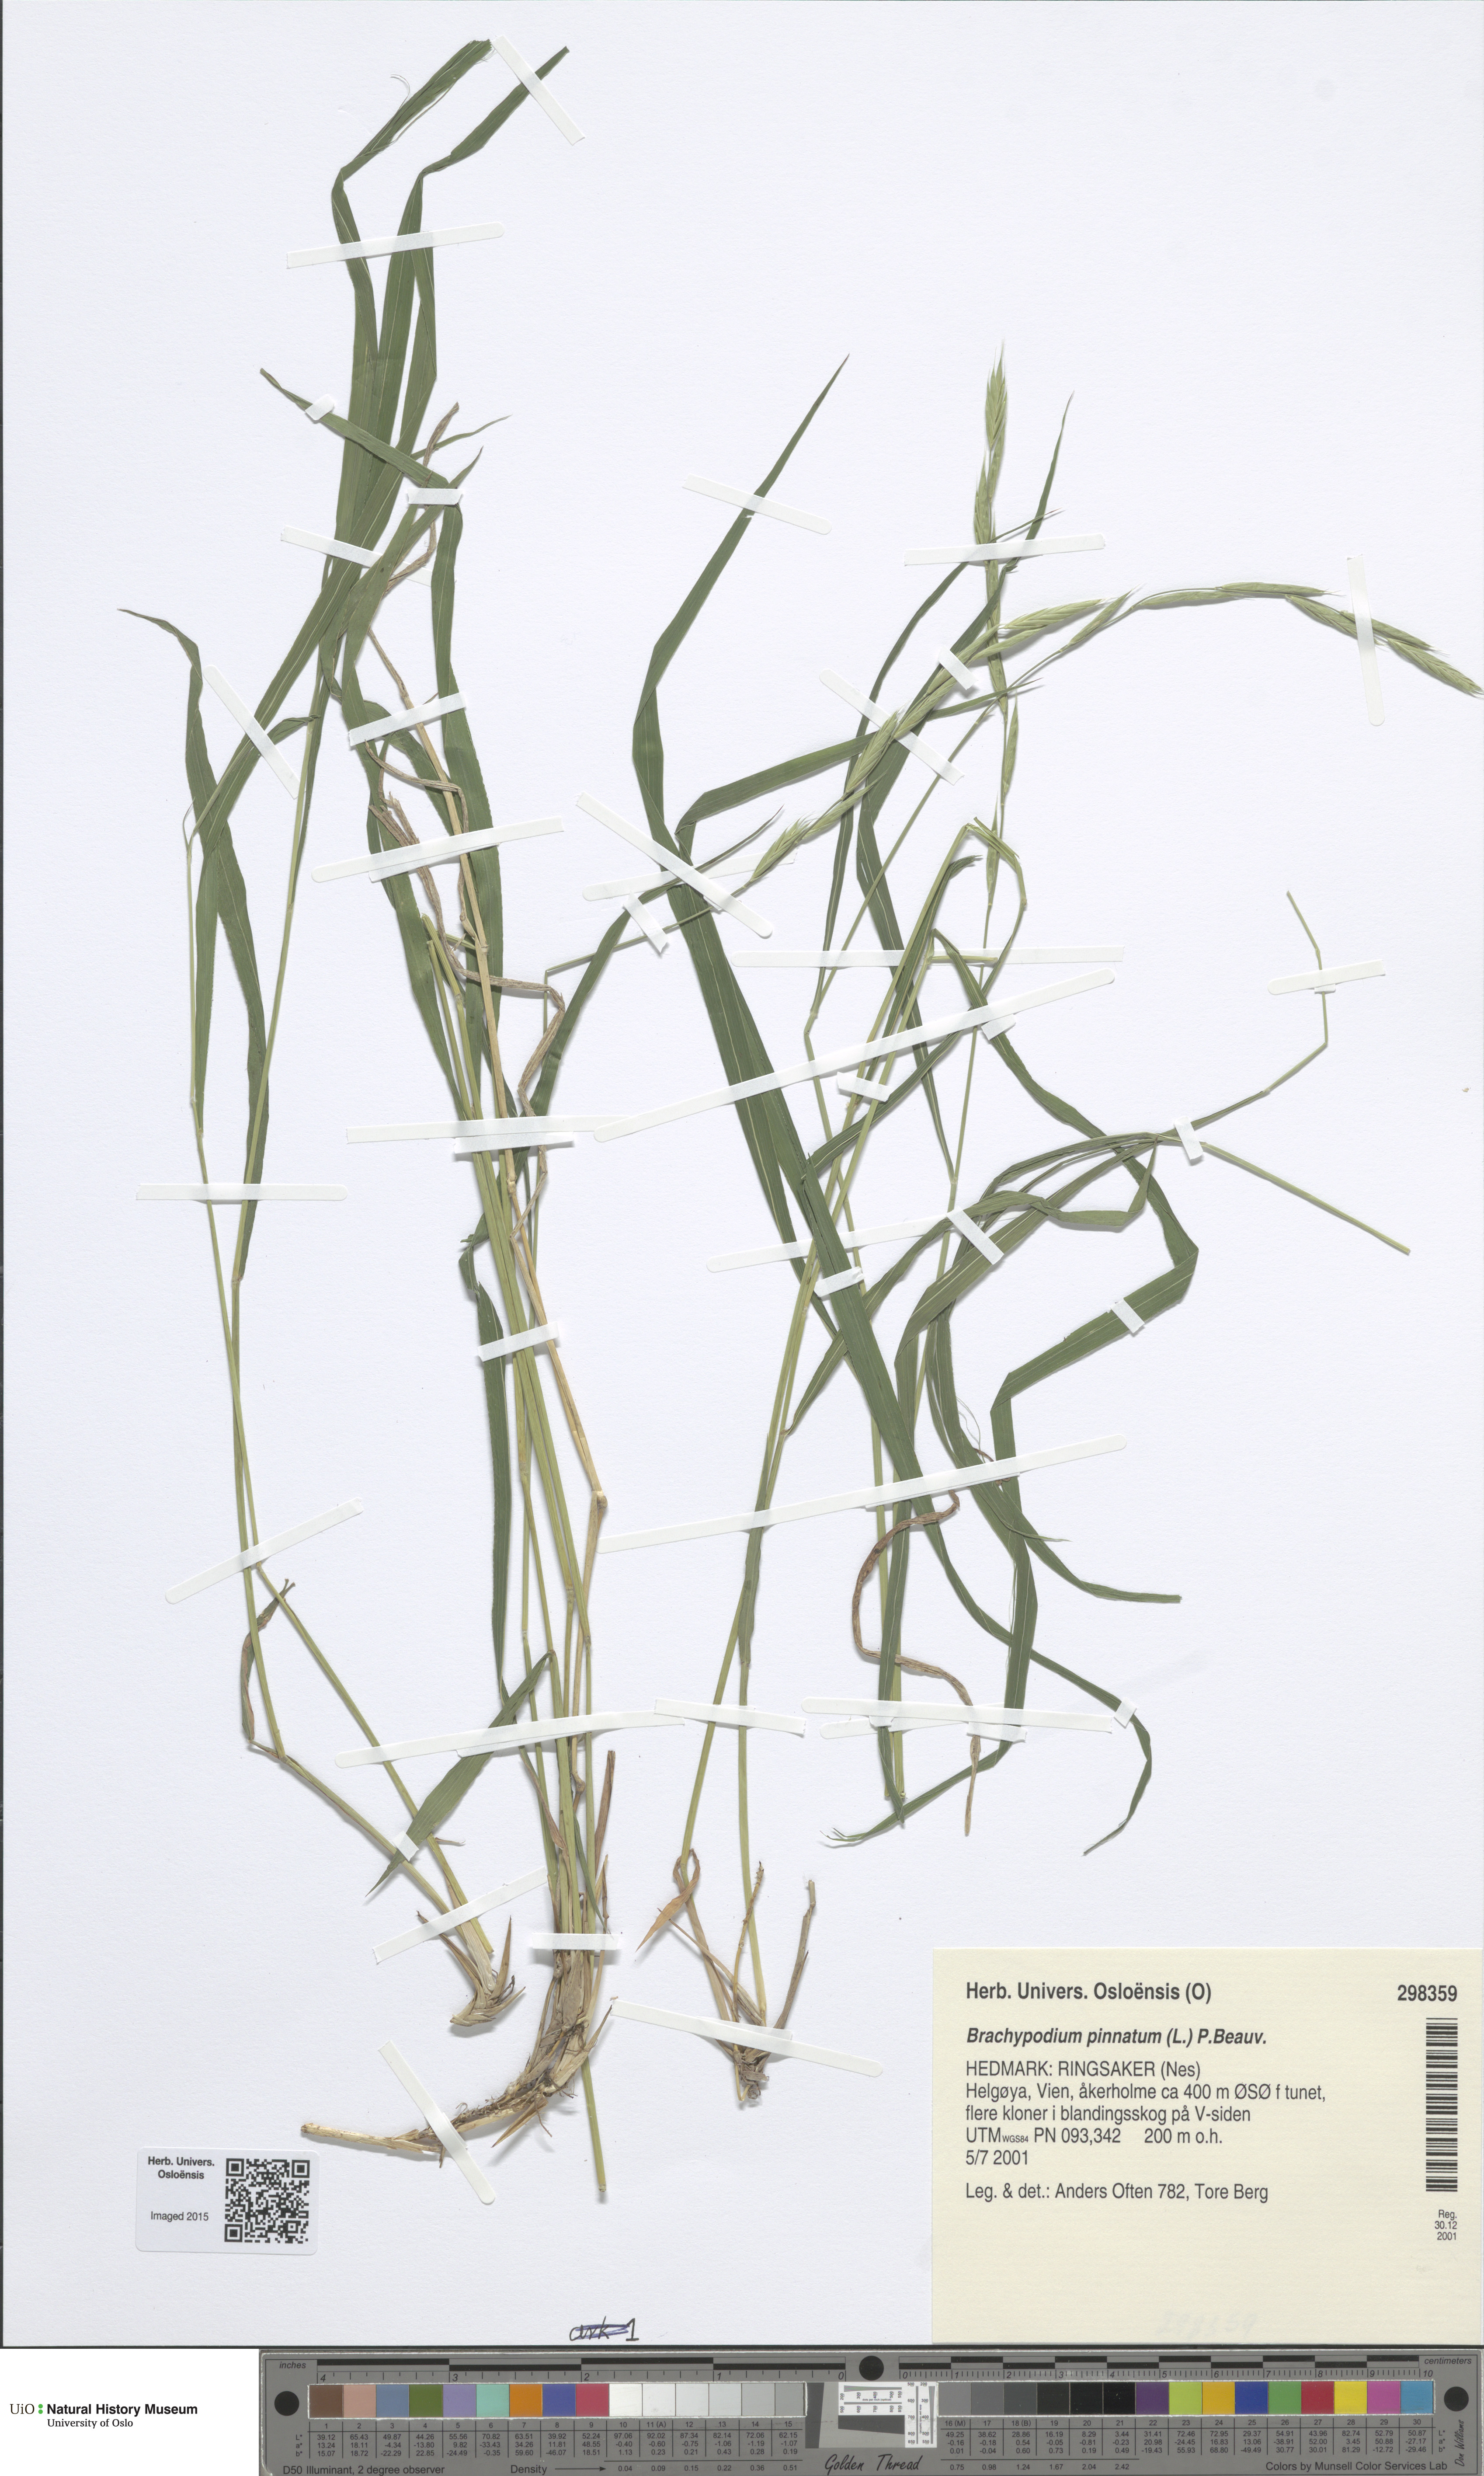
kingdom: Plantae
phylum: Tracheophyta
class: Liliopsida
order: Poales
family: Poaceae
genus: Brachypodium
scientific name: Brachypodium pinnatum
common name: Tor grass
